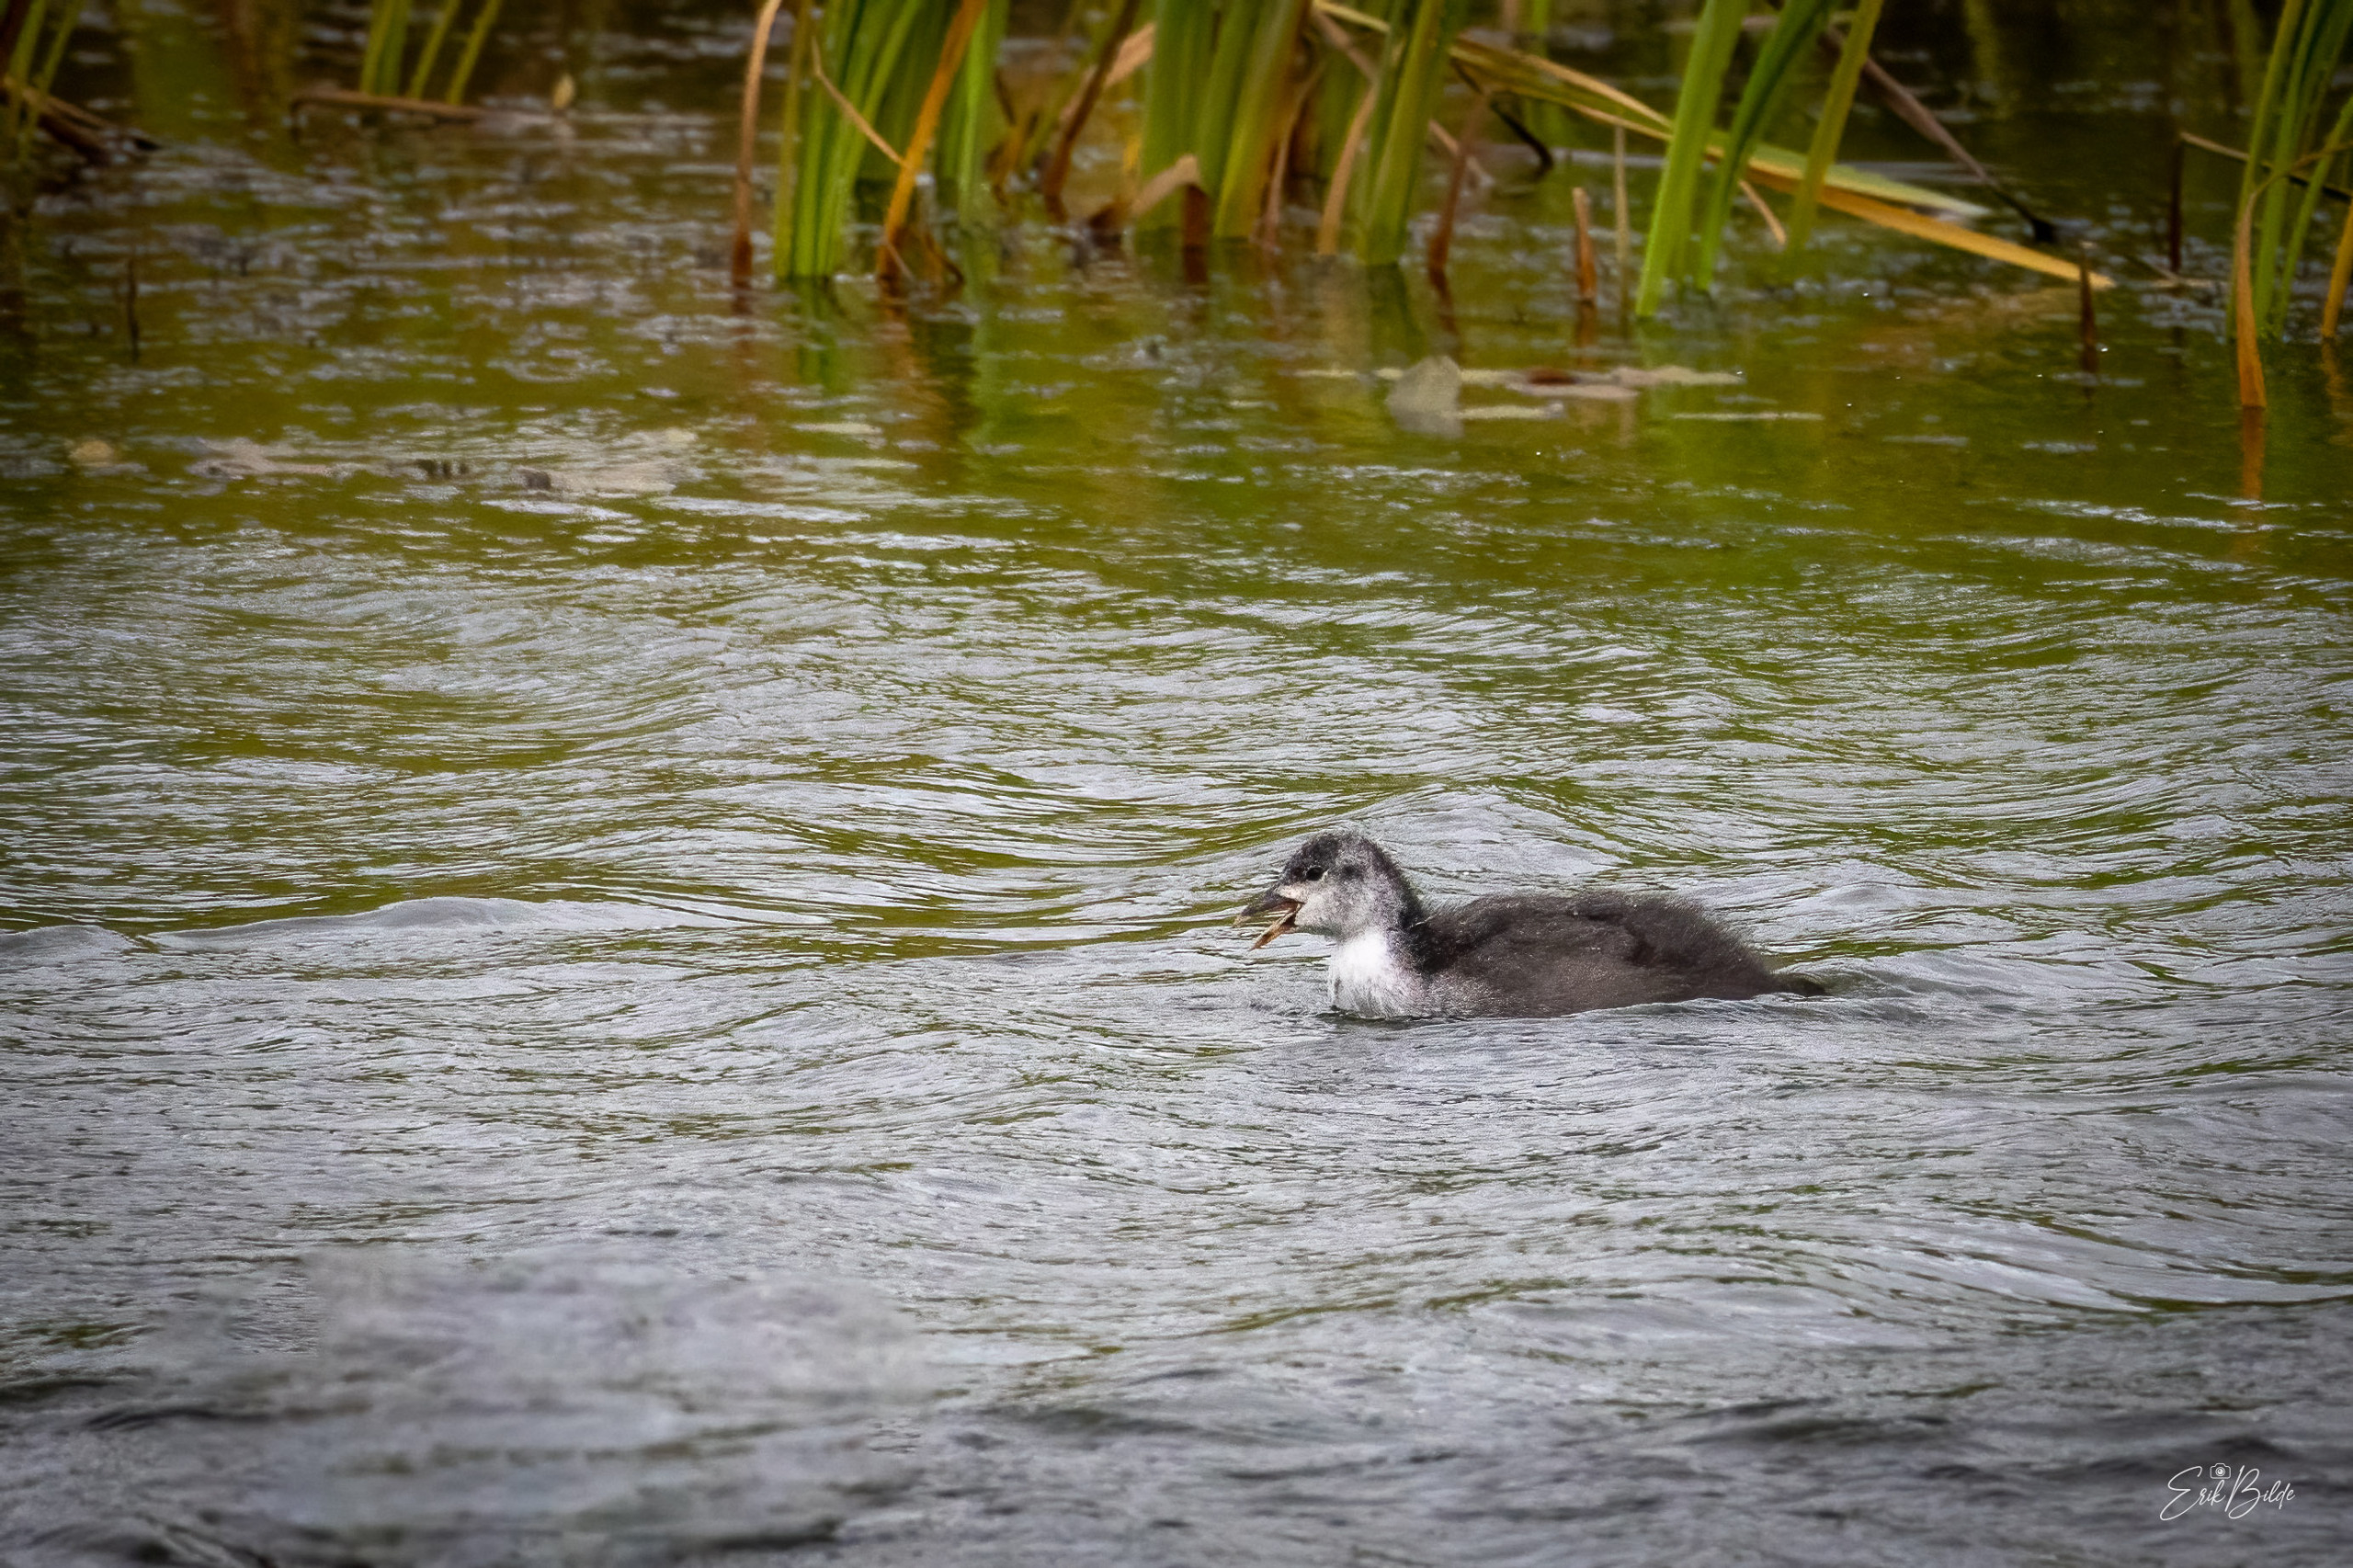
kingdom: Animalia
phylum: Chordata
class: Aves
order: Gruiformes
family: Rallidae
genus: Fulica
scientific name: Fulica atra
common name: Blishøne
